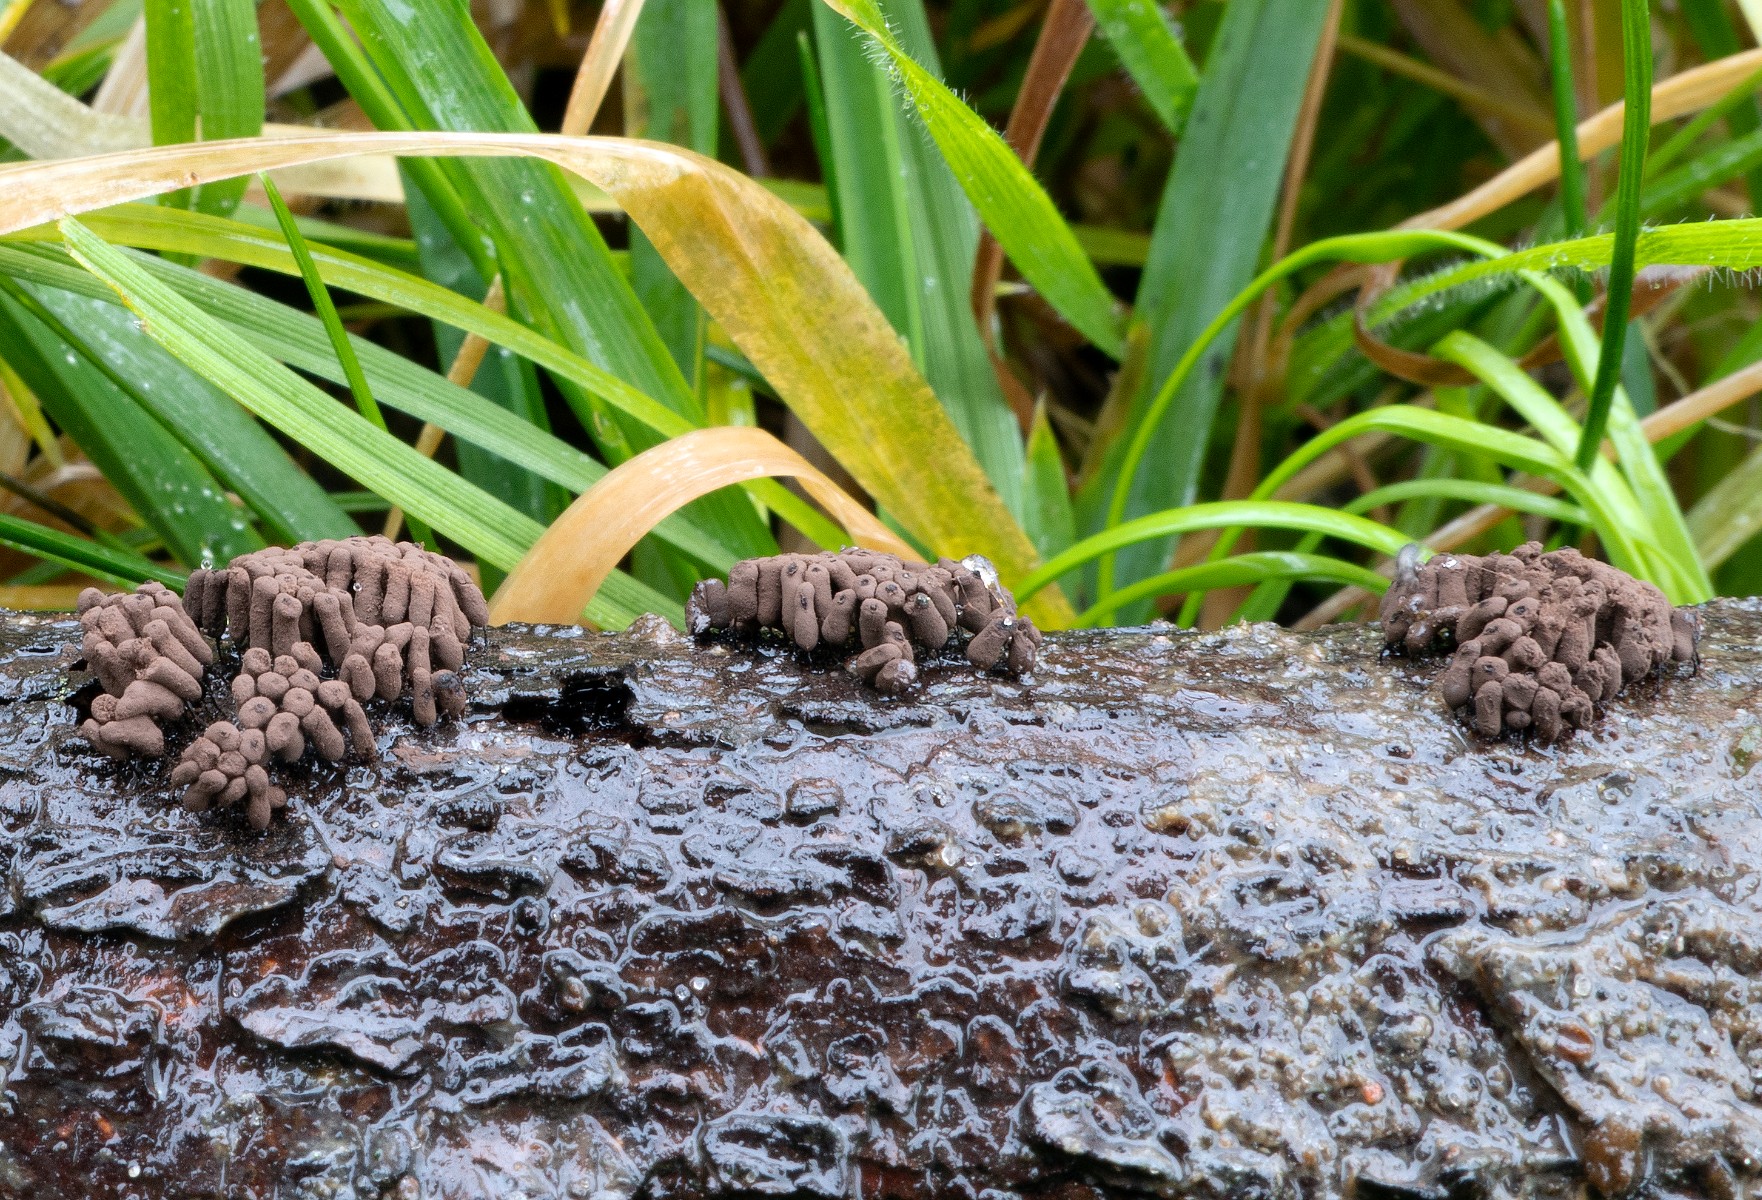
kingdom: Protozoa
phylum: Mycetozoa
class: Myxomycetes
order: Stemonitidales
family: Stemonitidaceae
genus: Stemonitis
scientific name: Stemonitis fusca
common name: sodbrun støvkølle
